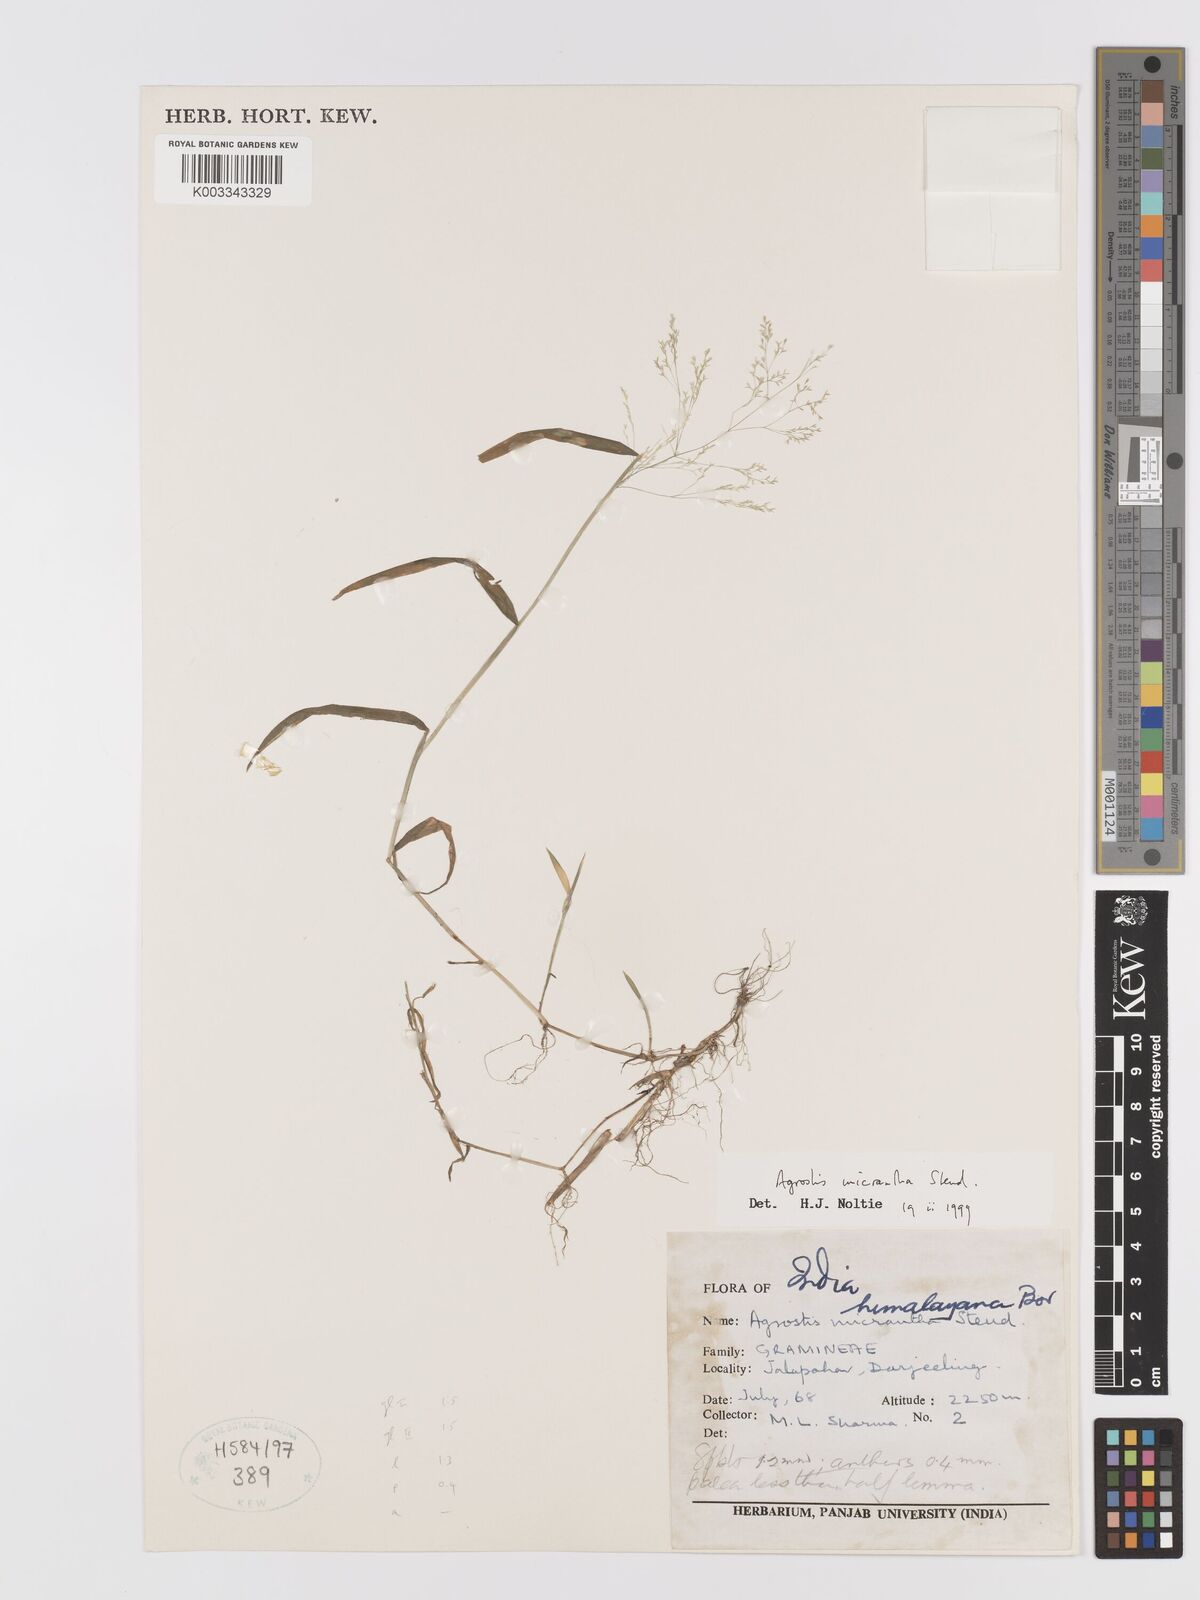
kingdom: Plantae
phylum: Tracheophyta
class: Liliopsida
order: Poales
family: Poaceae
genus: Agrostis
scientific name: Agrostis micrantha
